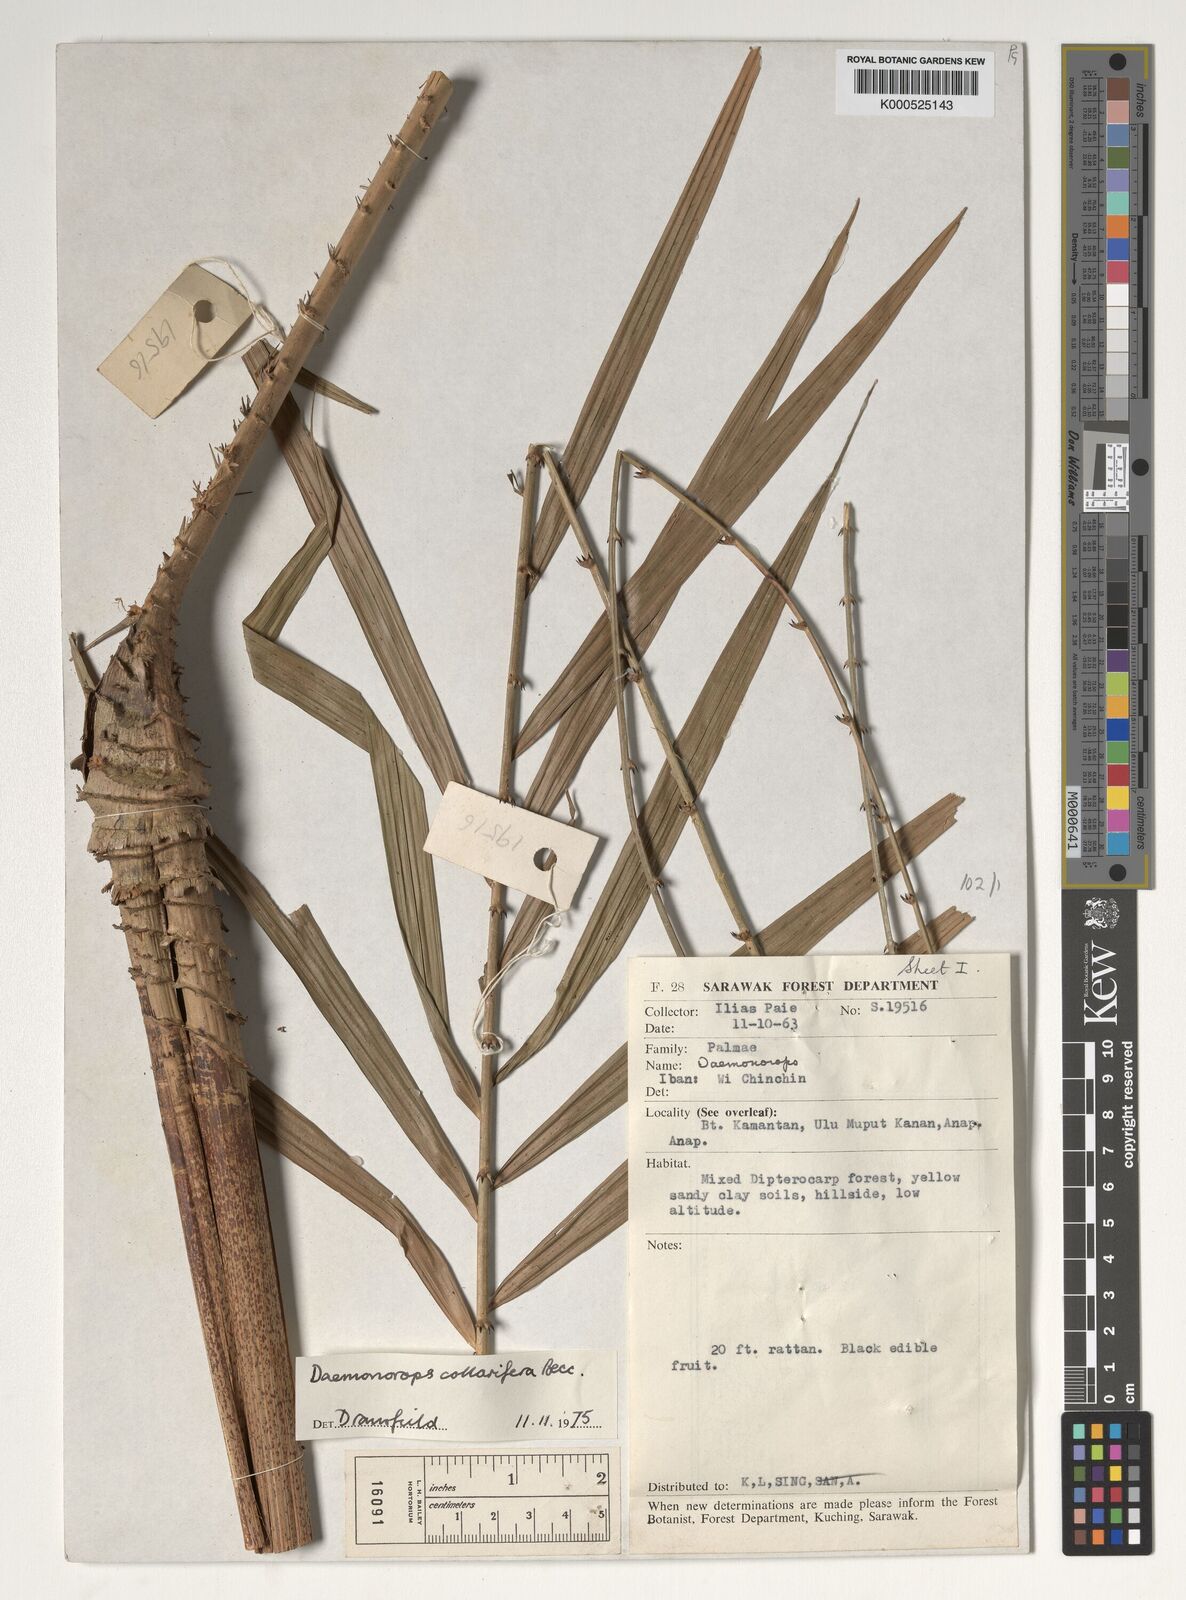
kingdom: Plantae
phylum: Tracheophyta
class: Liliopsida
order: Arecales
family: Arecaceae
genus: Calamus
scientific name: Calamus geniculatus
